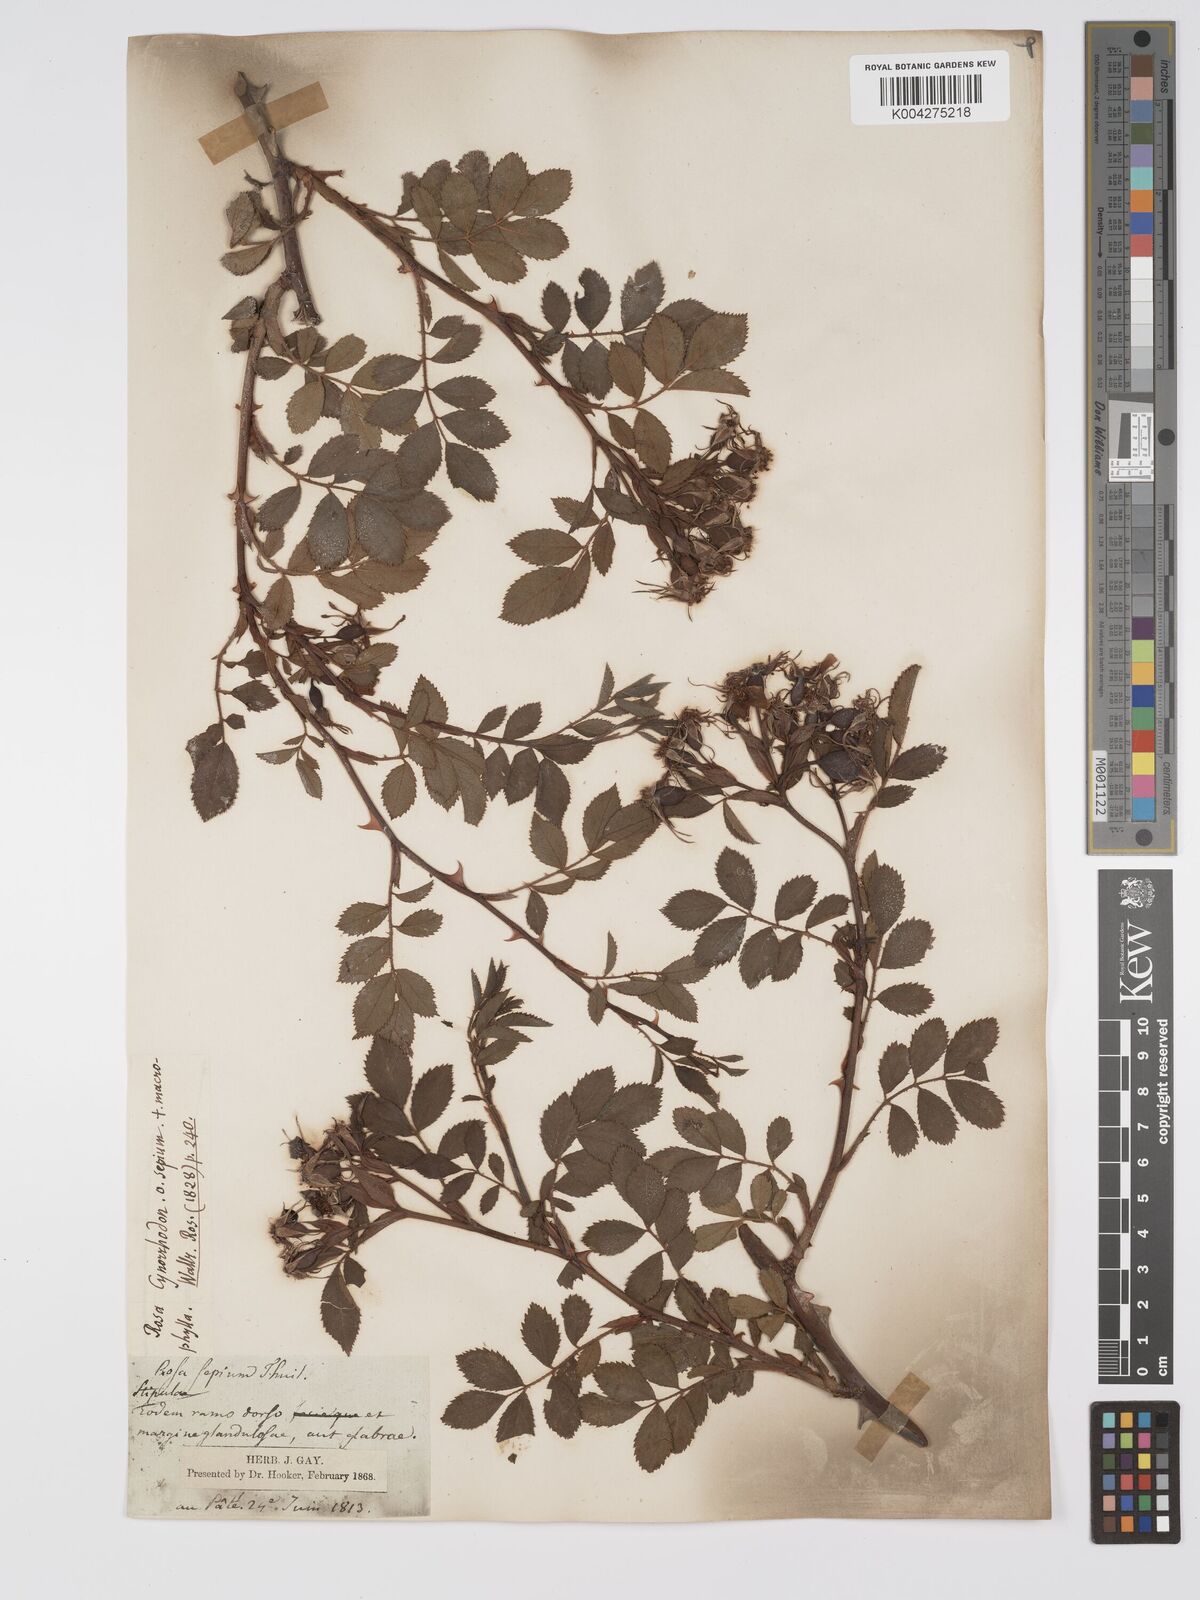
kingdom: Plantae
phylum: Tracheophyta
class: Magnoliopsida
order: Rosales
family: Rosaceae
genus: Rosa
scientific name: Rosa
